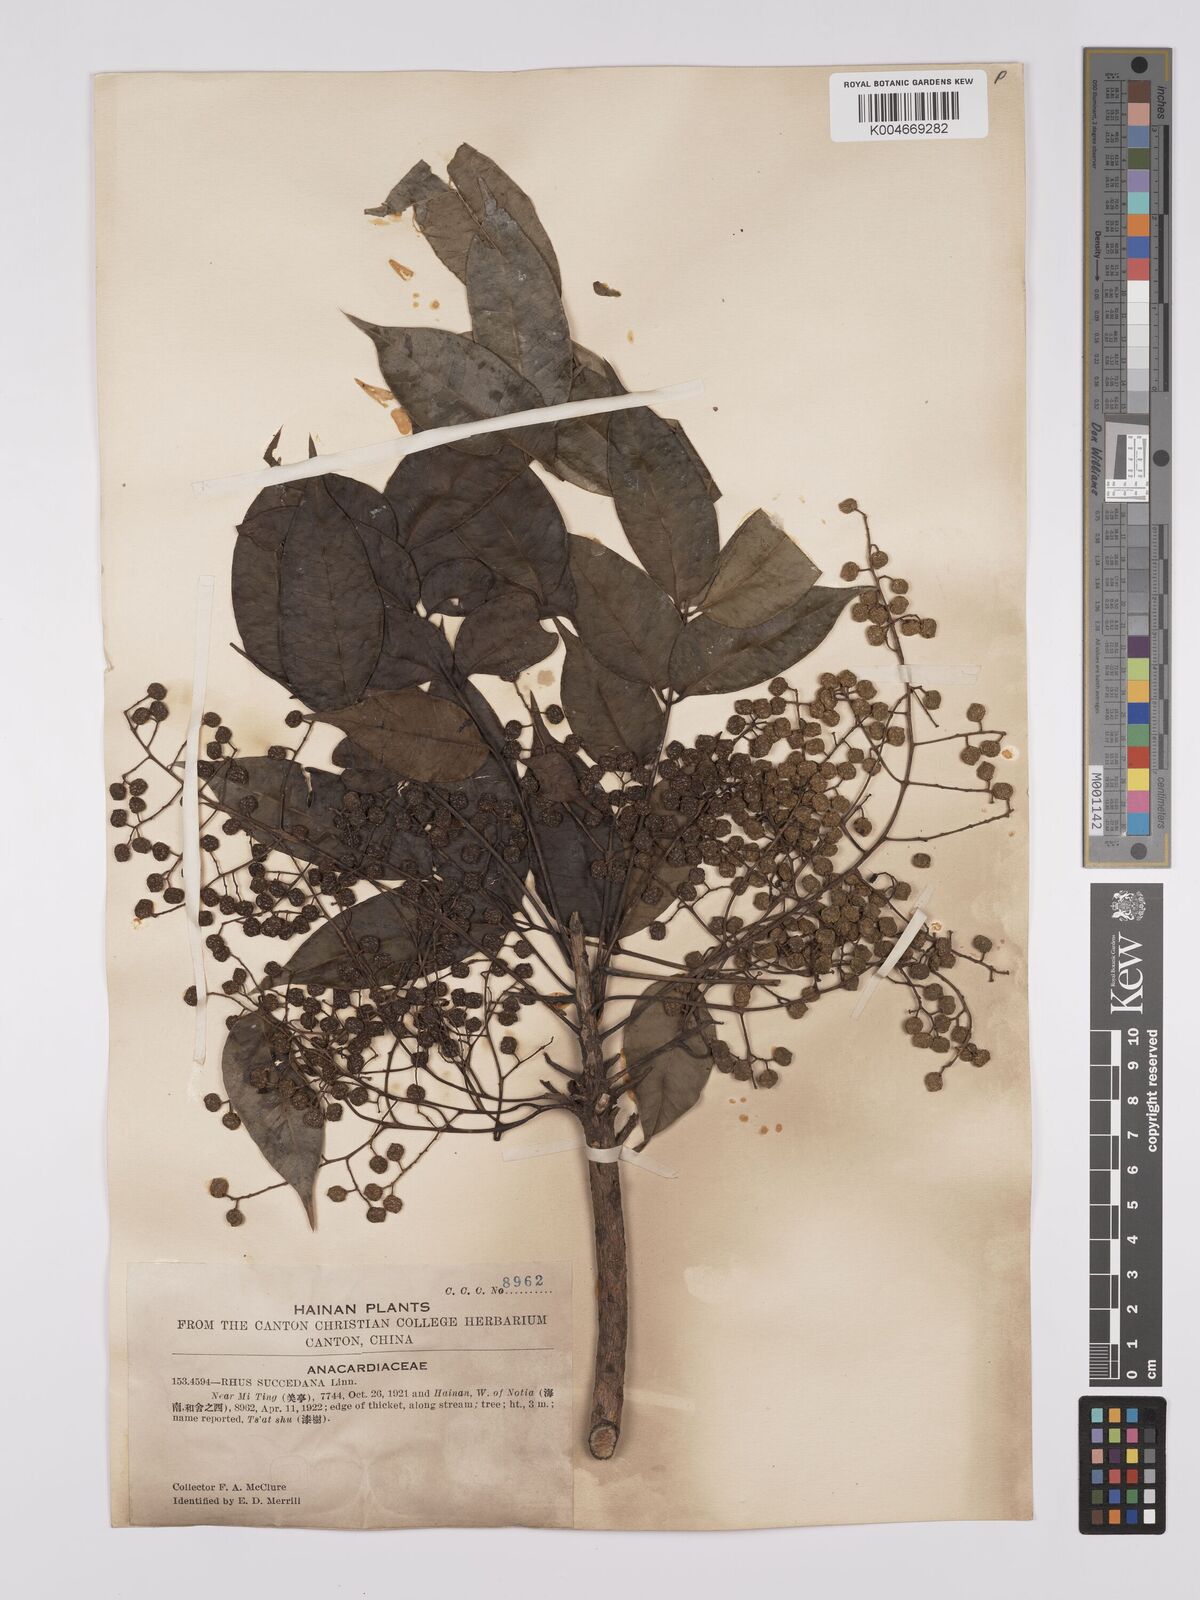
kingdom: Plantae
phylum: Tracheophyta
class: Magnoliopsida
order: Sapindales
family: Anacardiaceae
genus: Toxicodendron
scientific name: Toxicodendron succedaneum
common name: Wax tree
